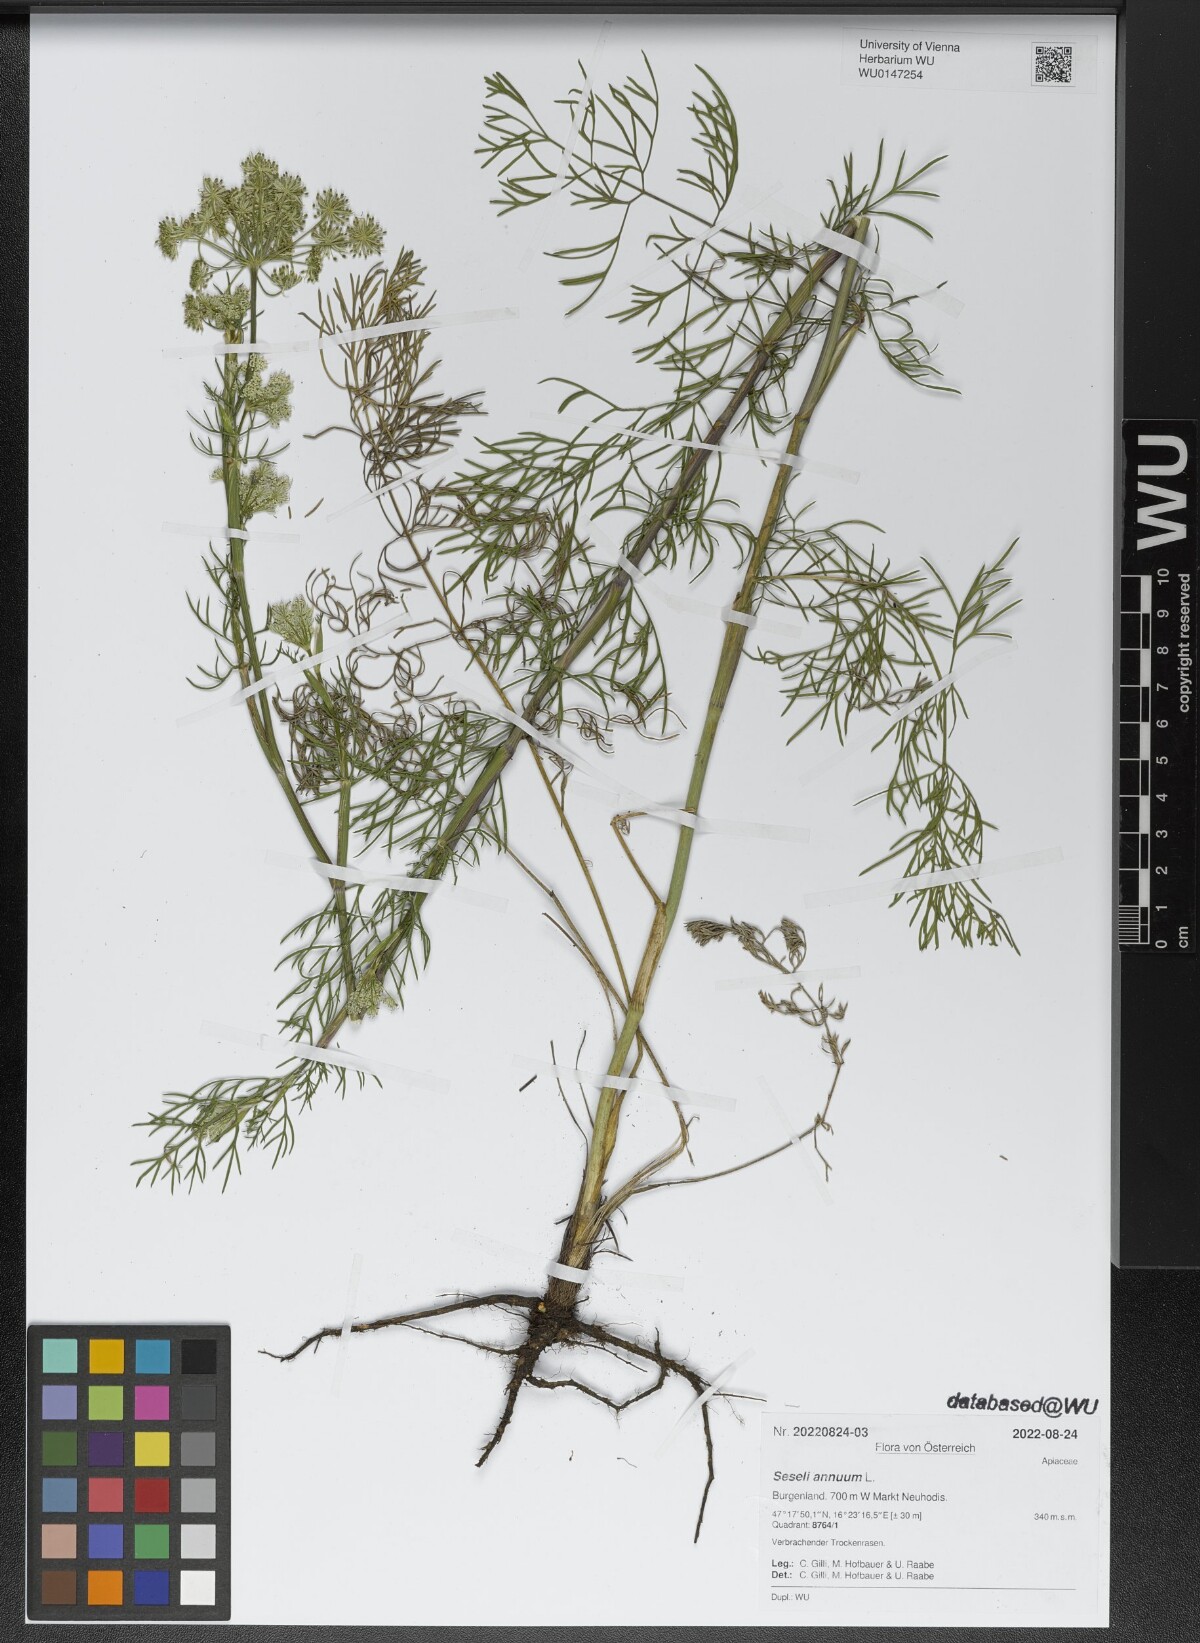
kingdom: Plantae
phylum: Tracheophyta
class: Magnoliopsida
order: Apiales
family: Apiaceae
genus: Seseli
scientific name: Seseli annuum
